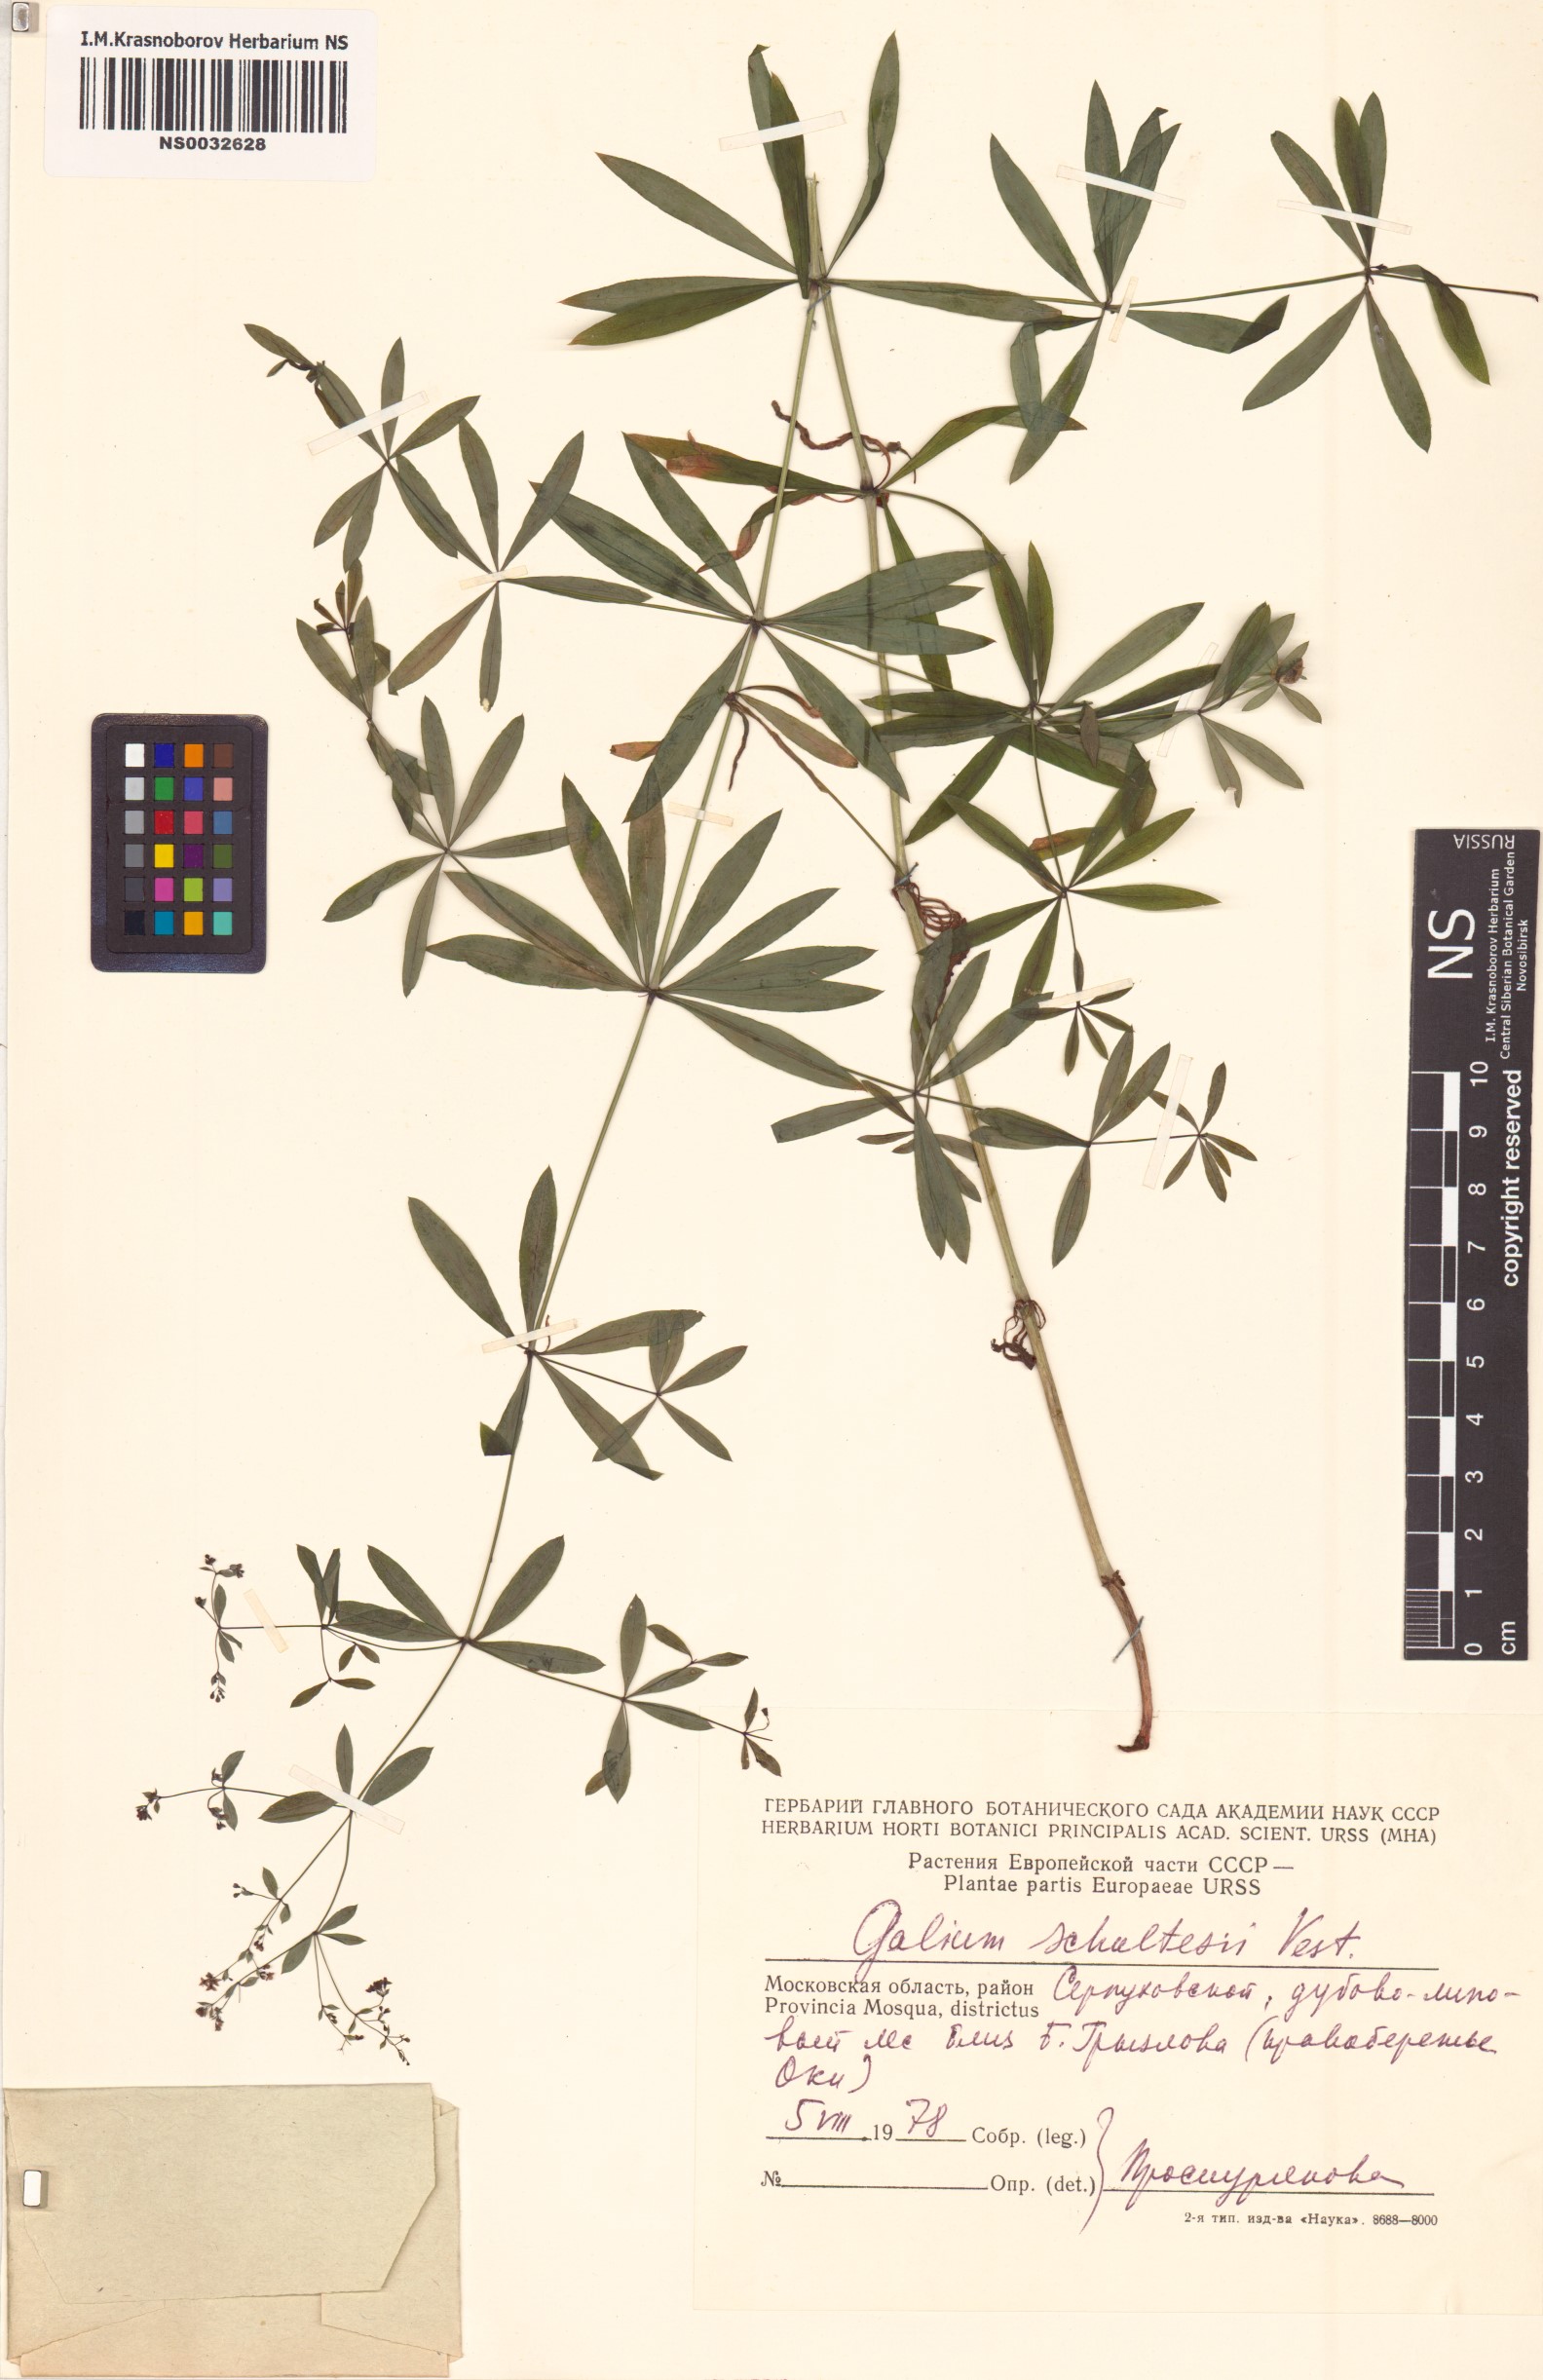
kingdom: Plantae
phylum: Tracheophyta
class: Magnoliopsida
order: Gentianales
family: Rubiaceae
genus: Galium
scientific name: Galium intermedium
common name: Bedstraw
